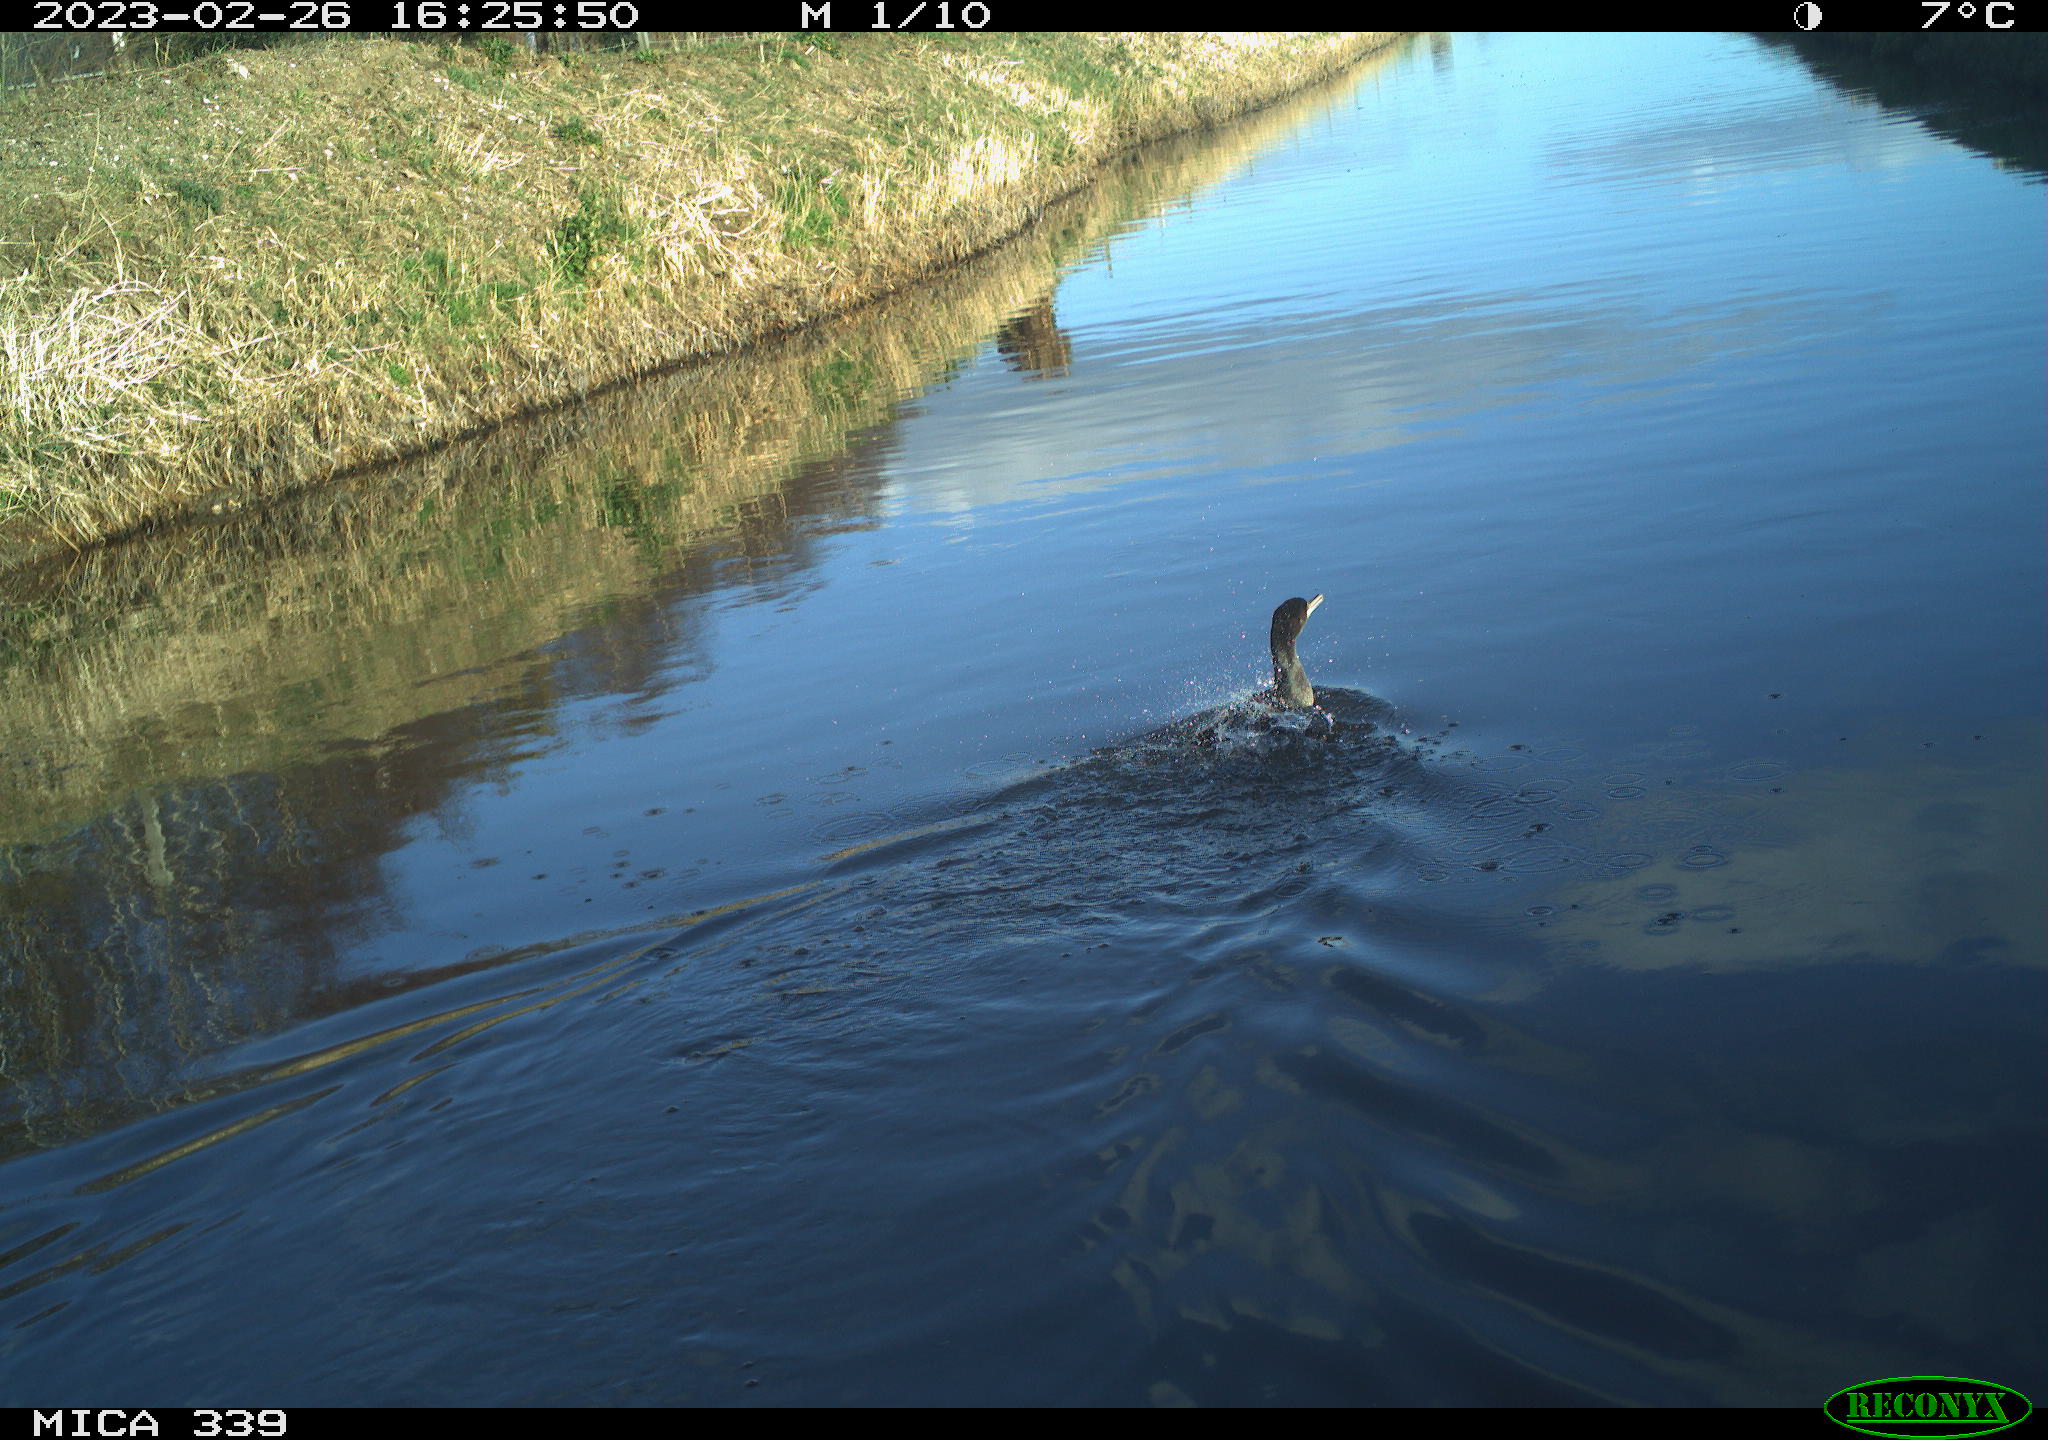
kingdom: Animalia
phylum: Chordata
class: Aves
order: Suliformes
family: Phalacrocoracidae
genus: Phalacrocorax
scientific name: Phalacrocorax carbo
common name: Great cormorant
